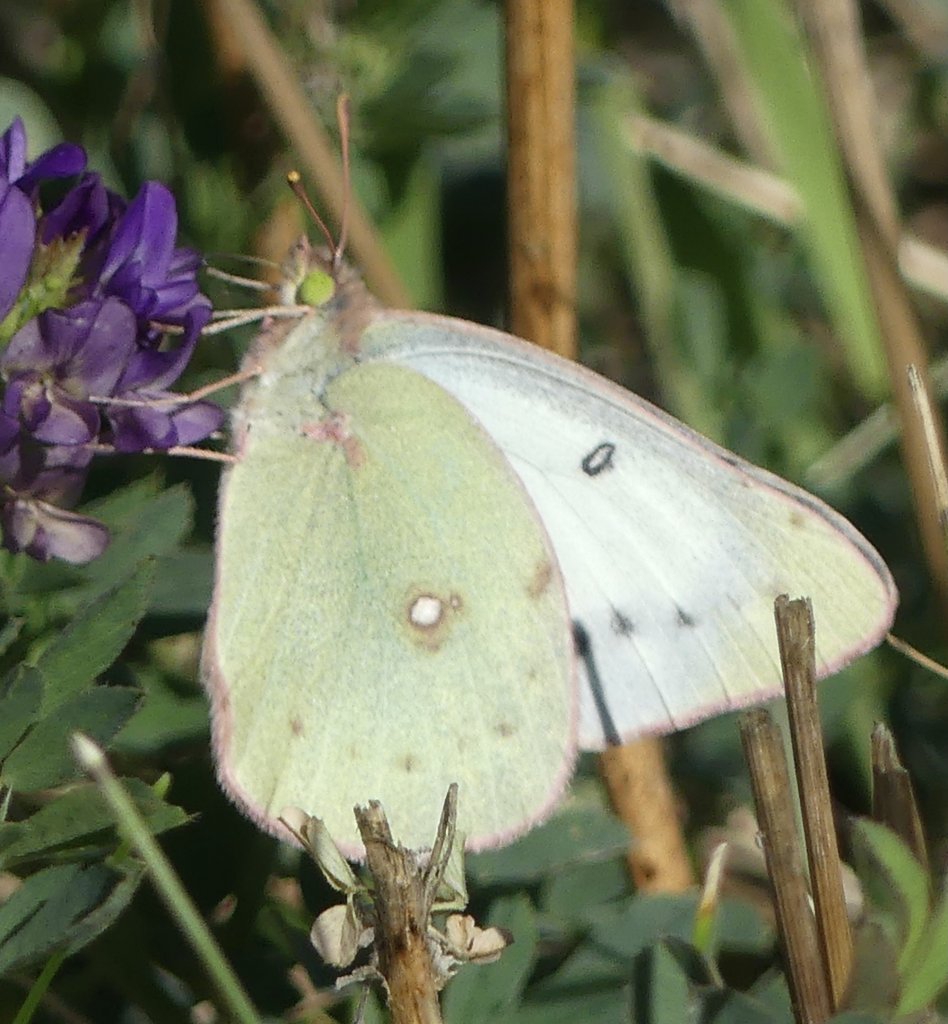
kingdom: Animalia
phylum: Arthropoda
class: Insecta
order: Lepidoptera
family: Pieridae
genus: Colias
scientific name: Colias philodice
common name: Clouded Sulphur
